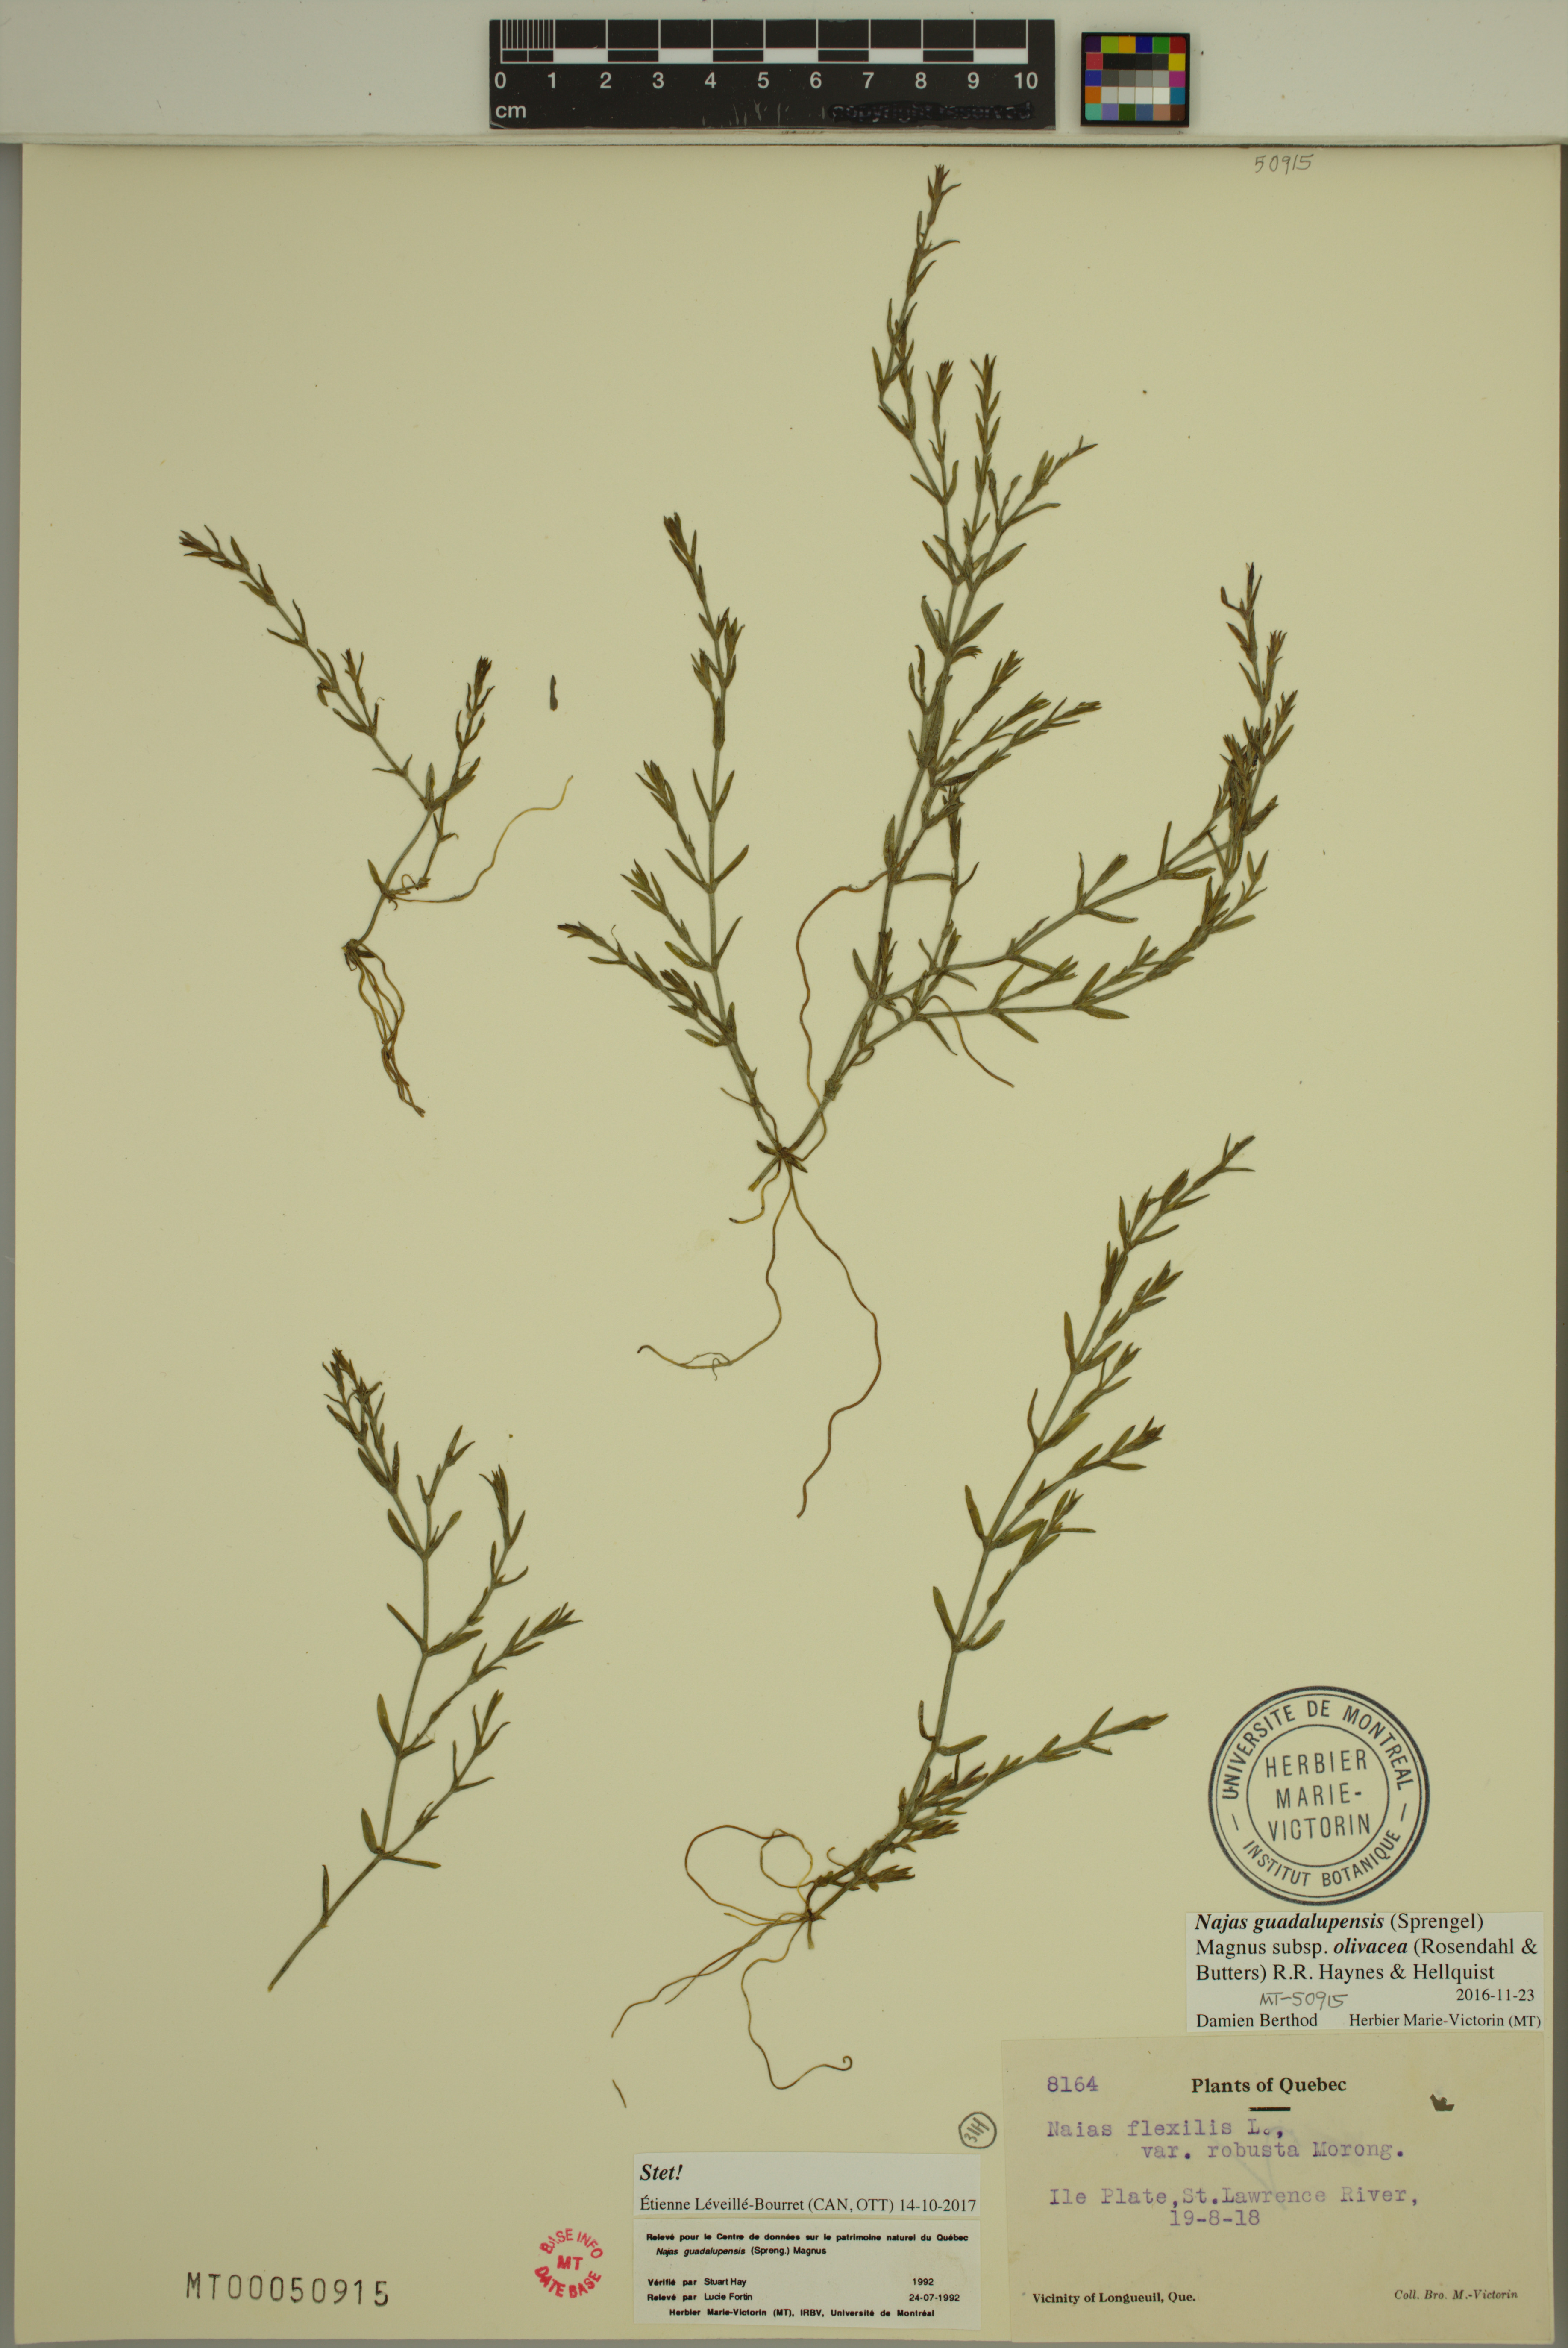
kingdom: Plantae
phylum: Tracheophyta
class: Liliopsida
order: Alismatales
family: Hydrocharitaceae
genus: Najas
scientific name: Najas guadalupensis
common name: Southern naiad
